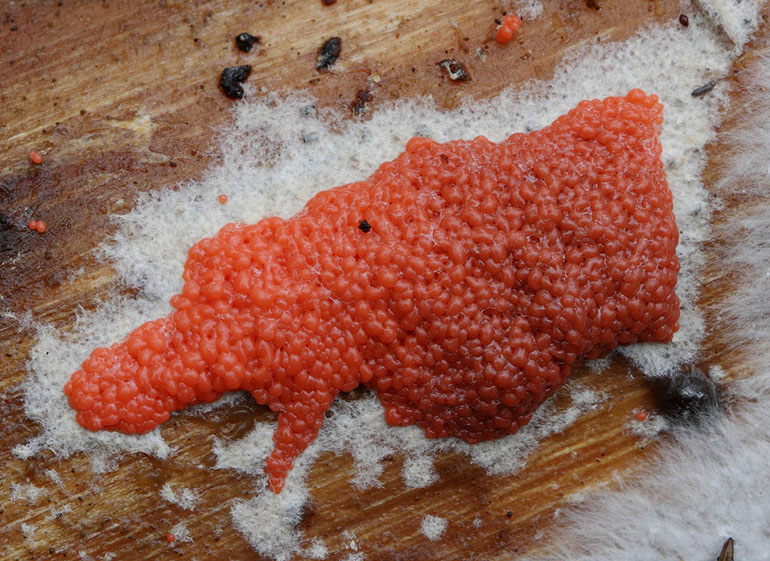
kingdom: Protozoa
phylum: Mycetozoa
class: Myxomycetes
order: Cribrariales
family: Tubiferaceae
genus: Licaethalium
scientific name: Licaethalium olivaceum
